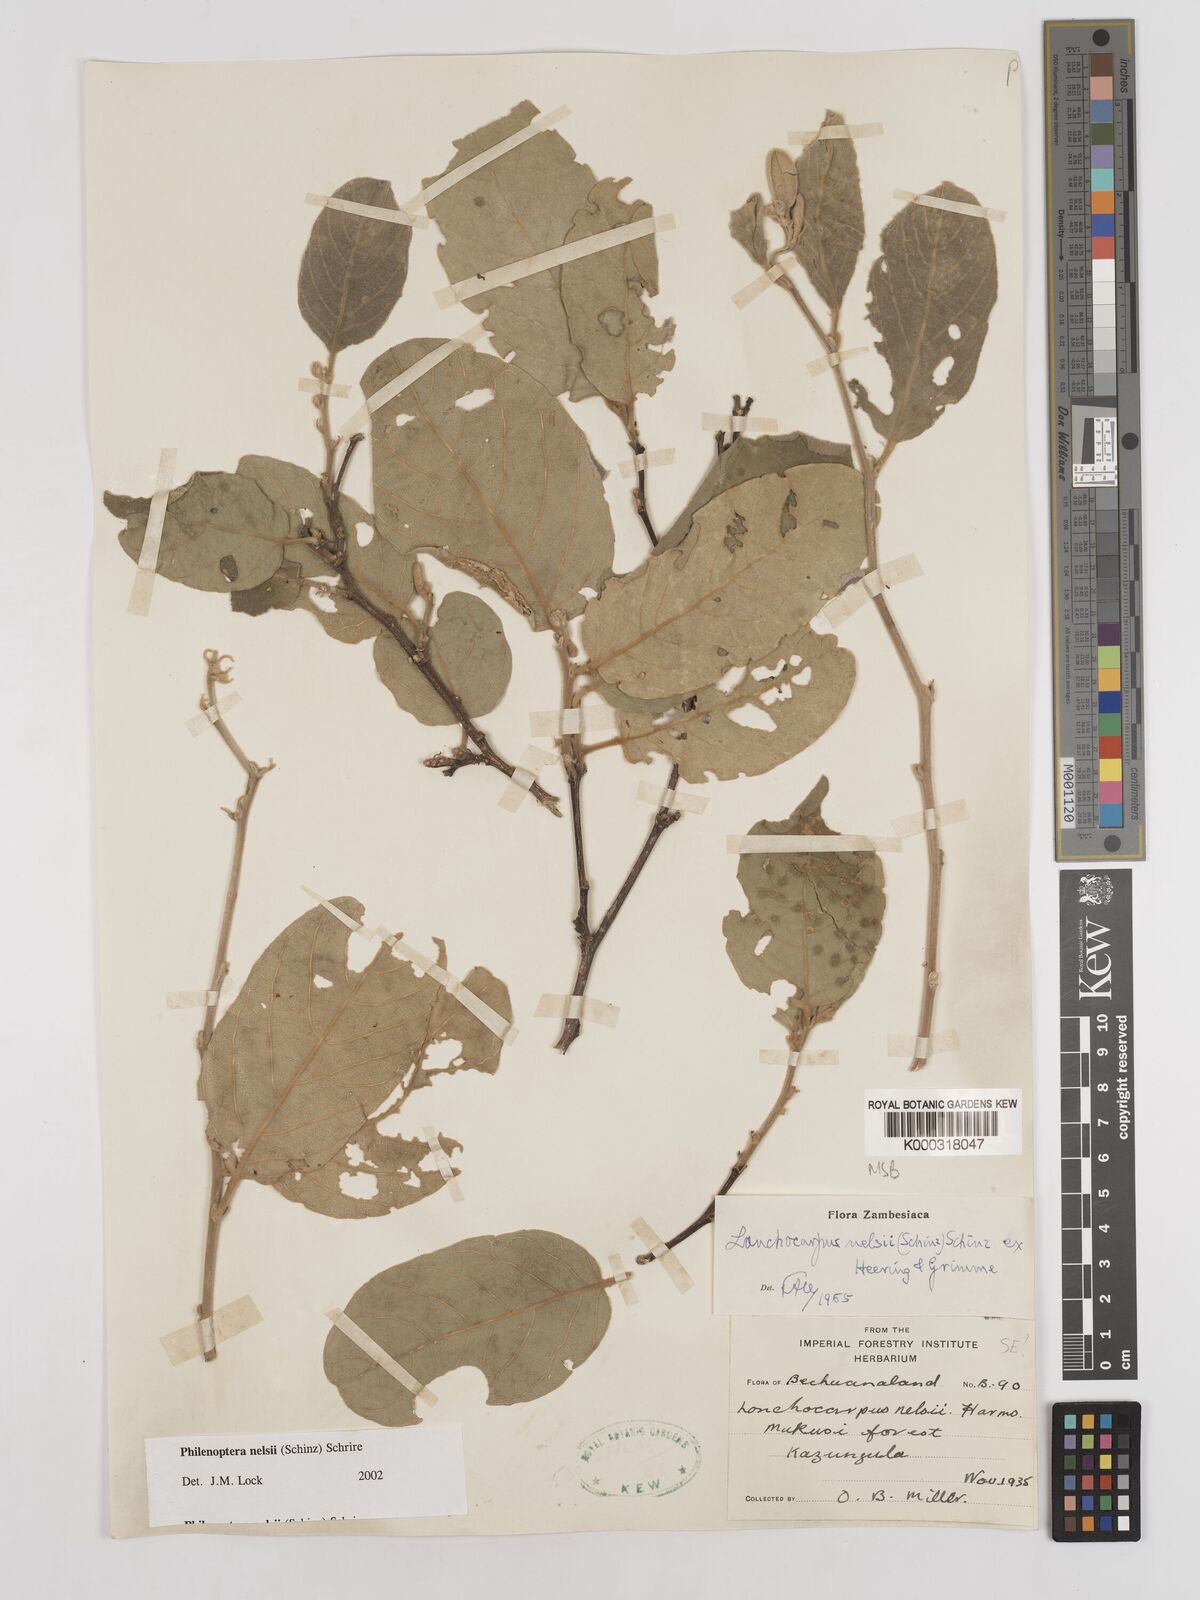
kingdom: Plantae
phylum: Tracheophyta
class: Magnoliopsida
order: Fabales
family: Fabaceae
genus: Philenoptera
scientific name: Philenoptera nelsii
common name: Kalahari apple-leaf
